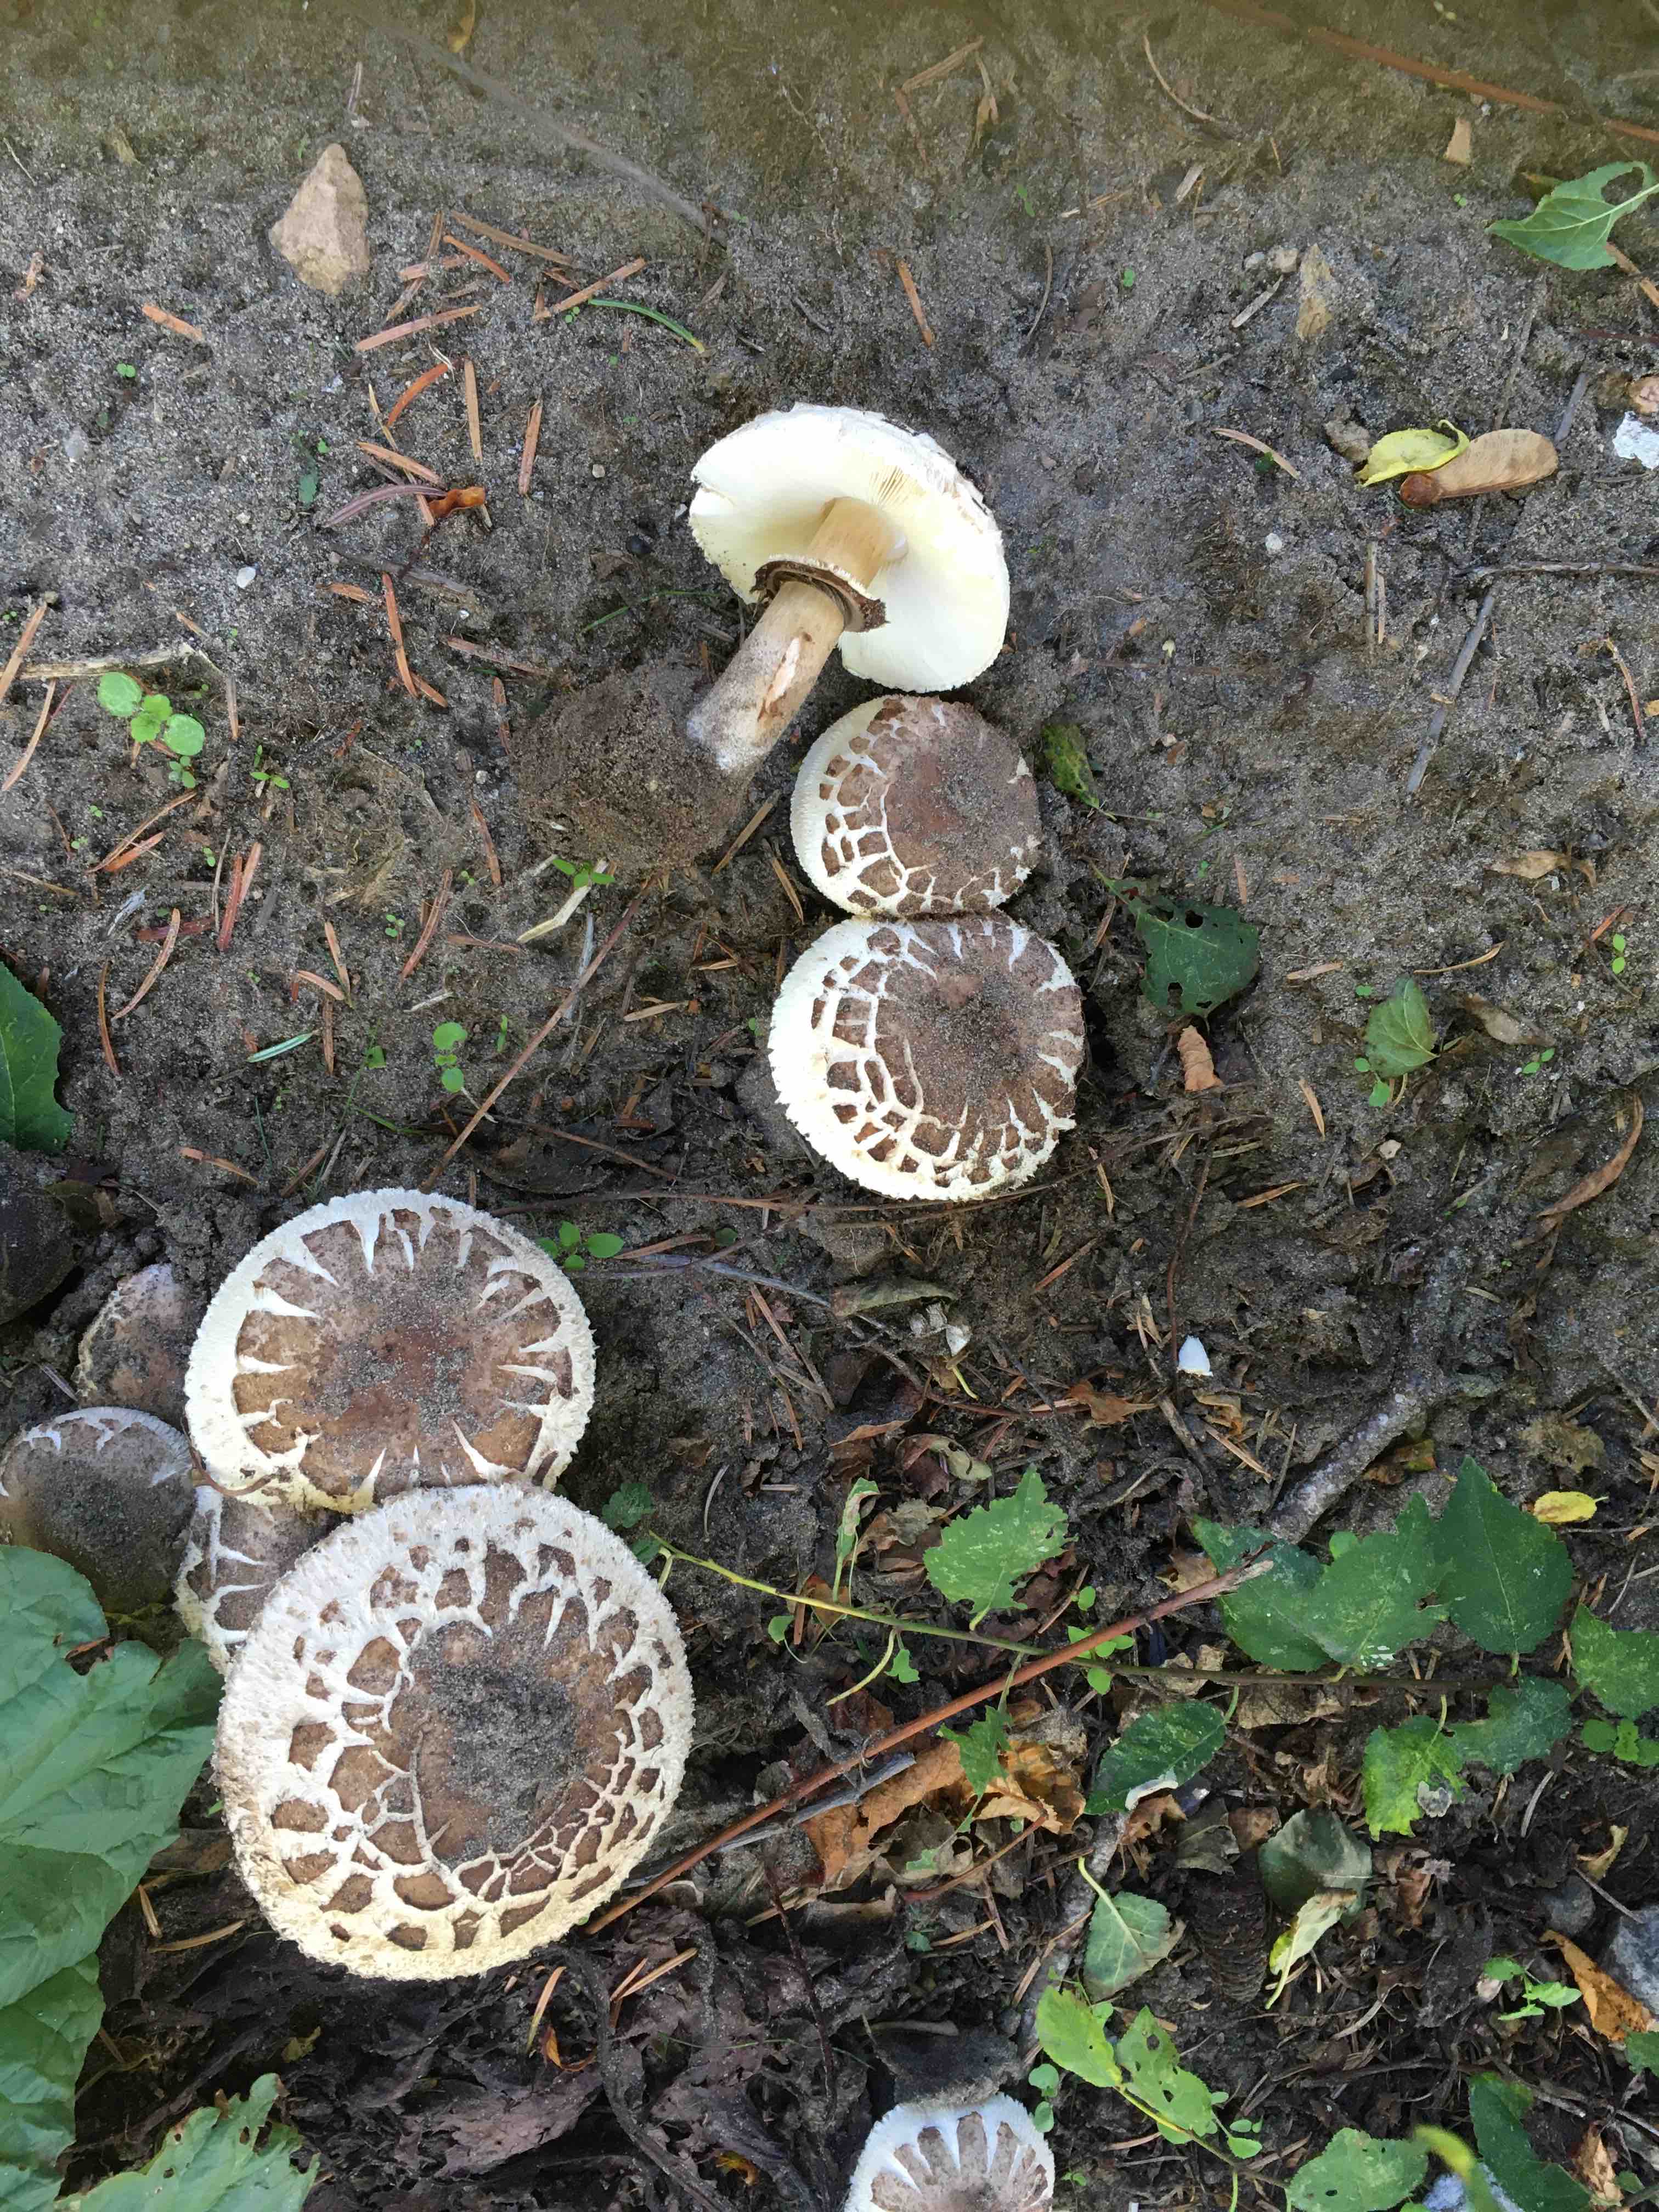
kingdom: Fungi
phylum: Basidiomycota
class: Agaricomycetes
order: Agaricales
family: Agaricaceae
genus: Chlorophyllum
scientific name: Chlorophyllum brunneum
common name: giftig rabarberhat
